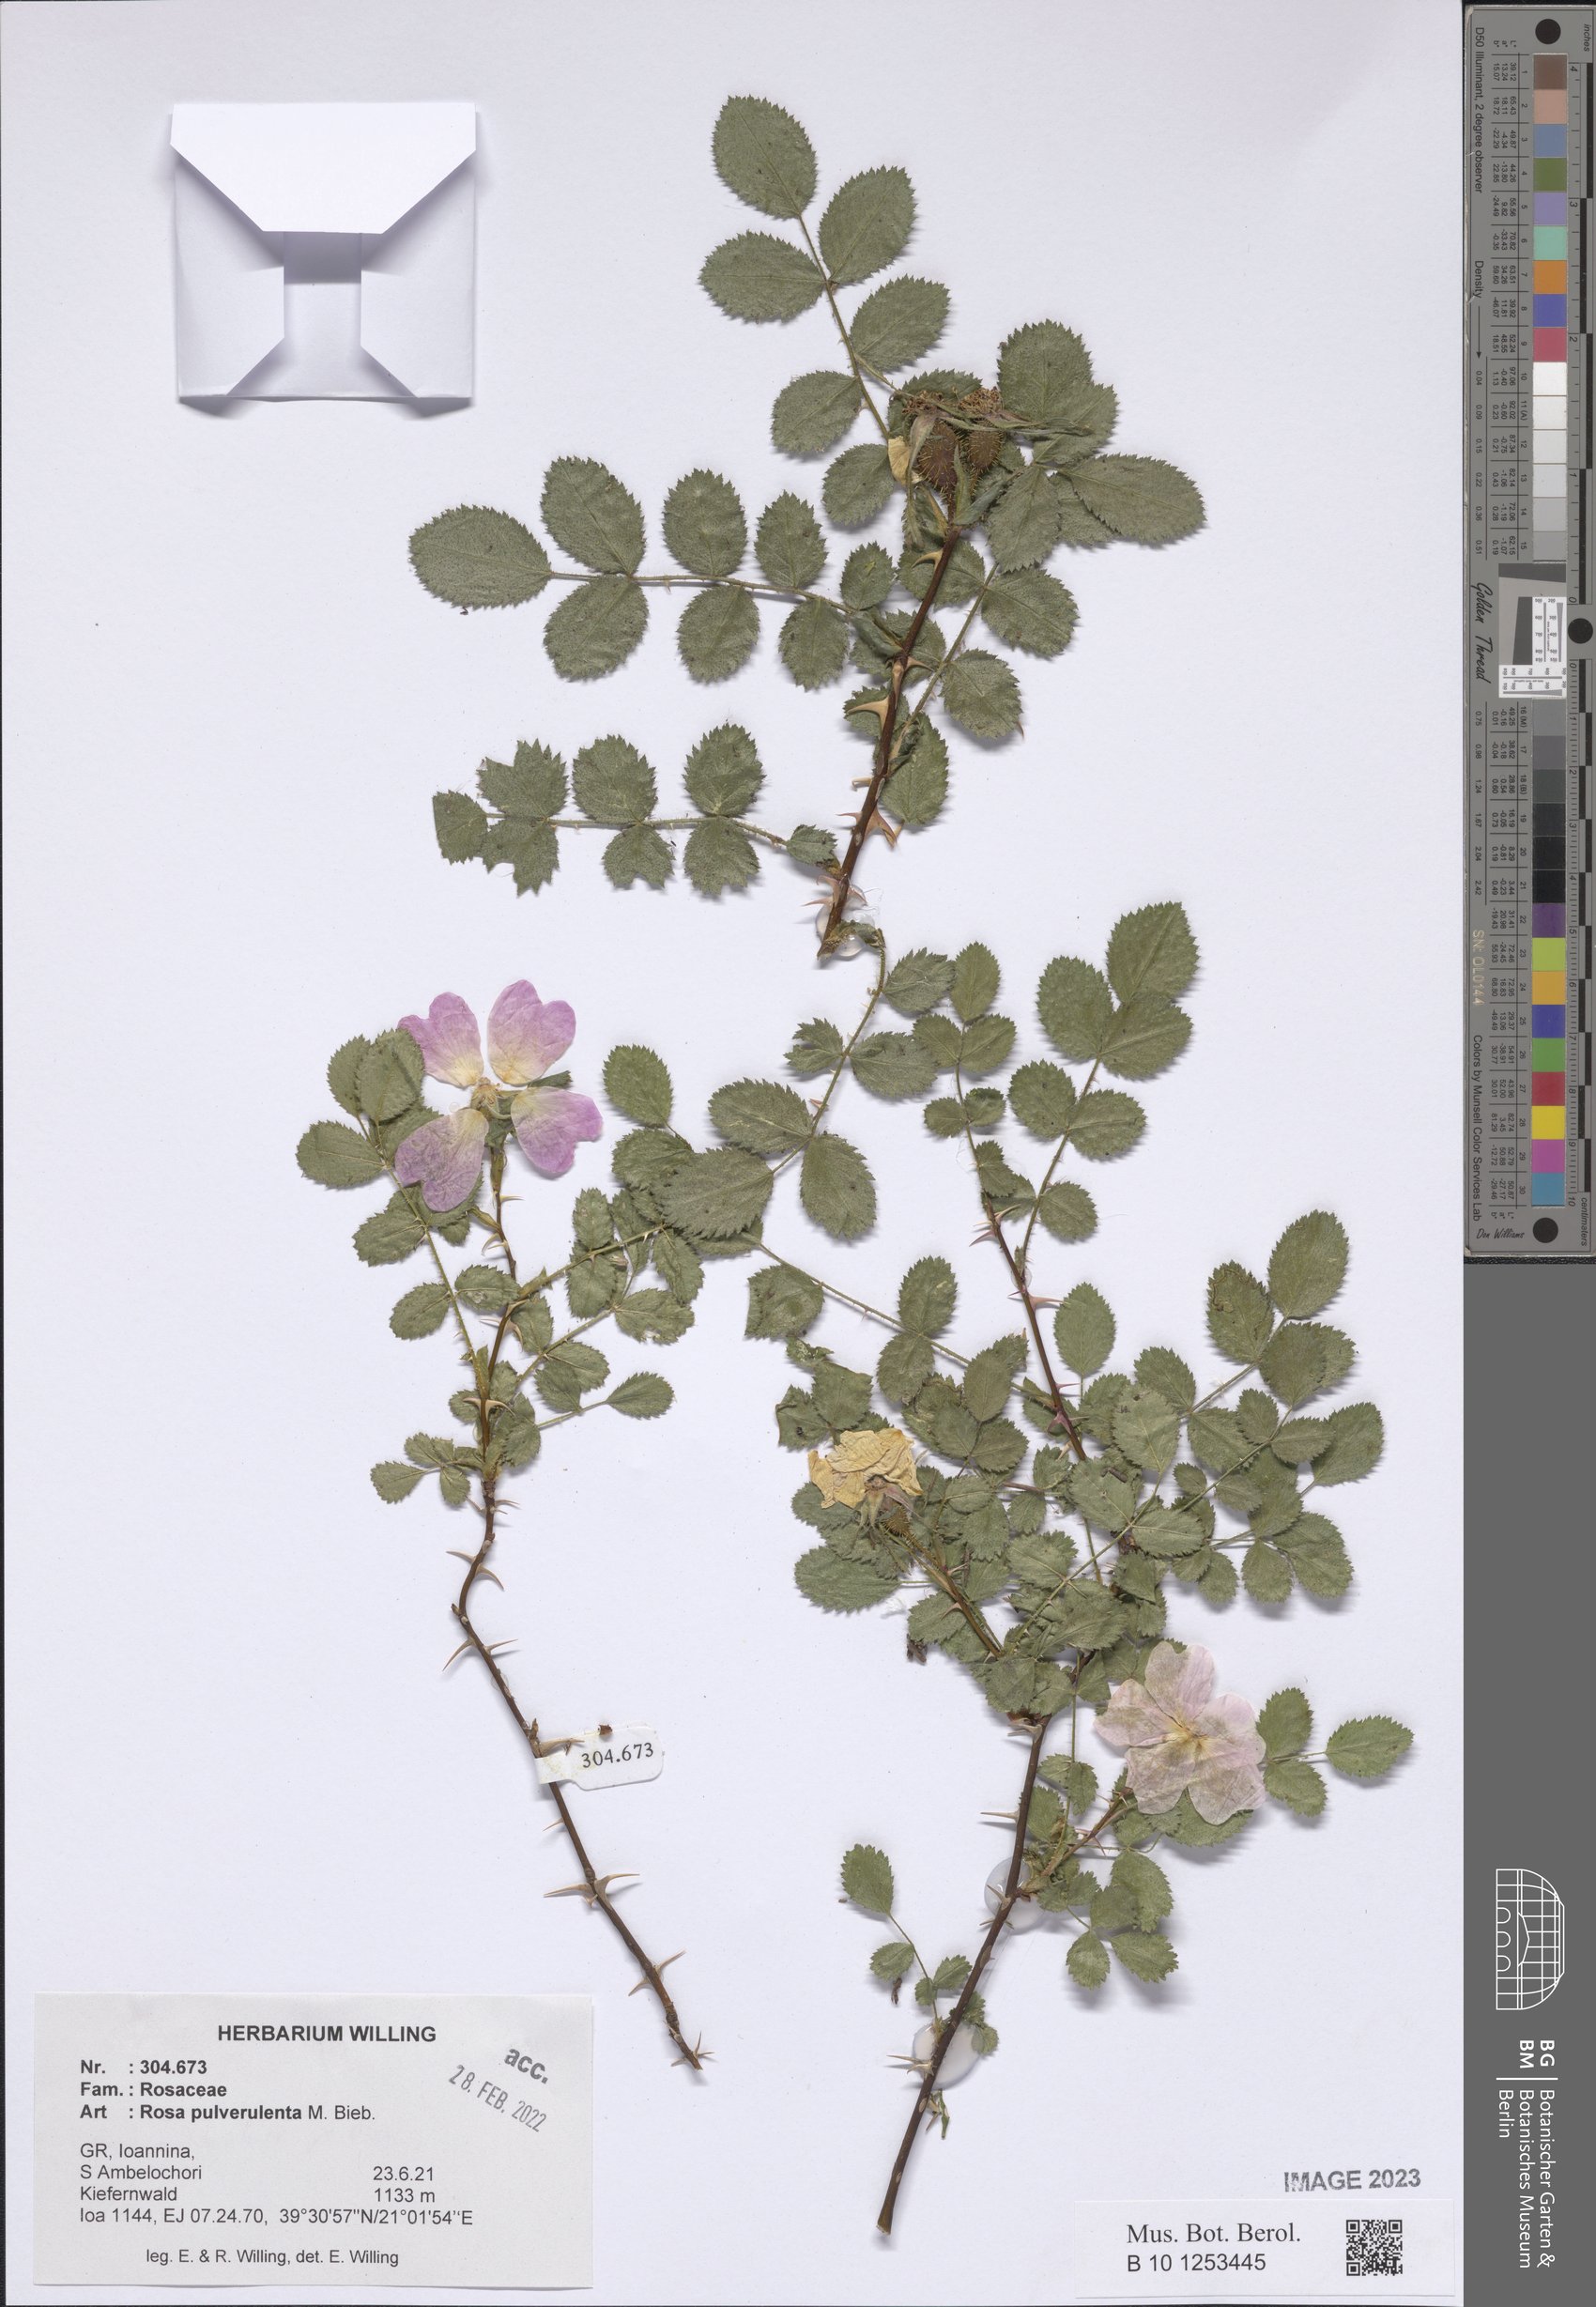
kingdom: Plantae
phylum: Tracheophyta
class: Magnoliopsida
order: Rosales
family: Rosaceae
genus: Rosa
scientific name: Rosa pulverulenta
